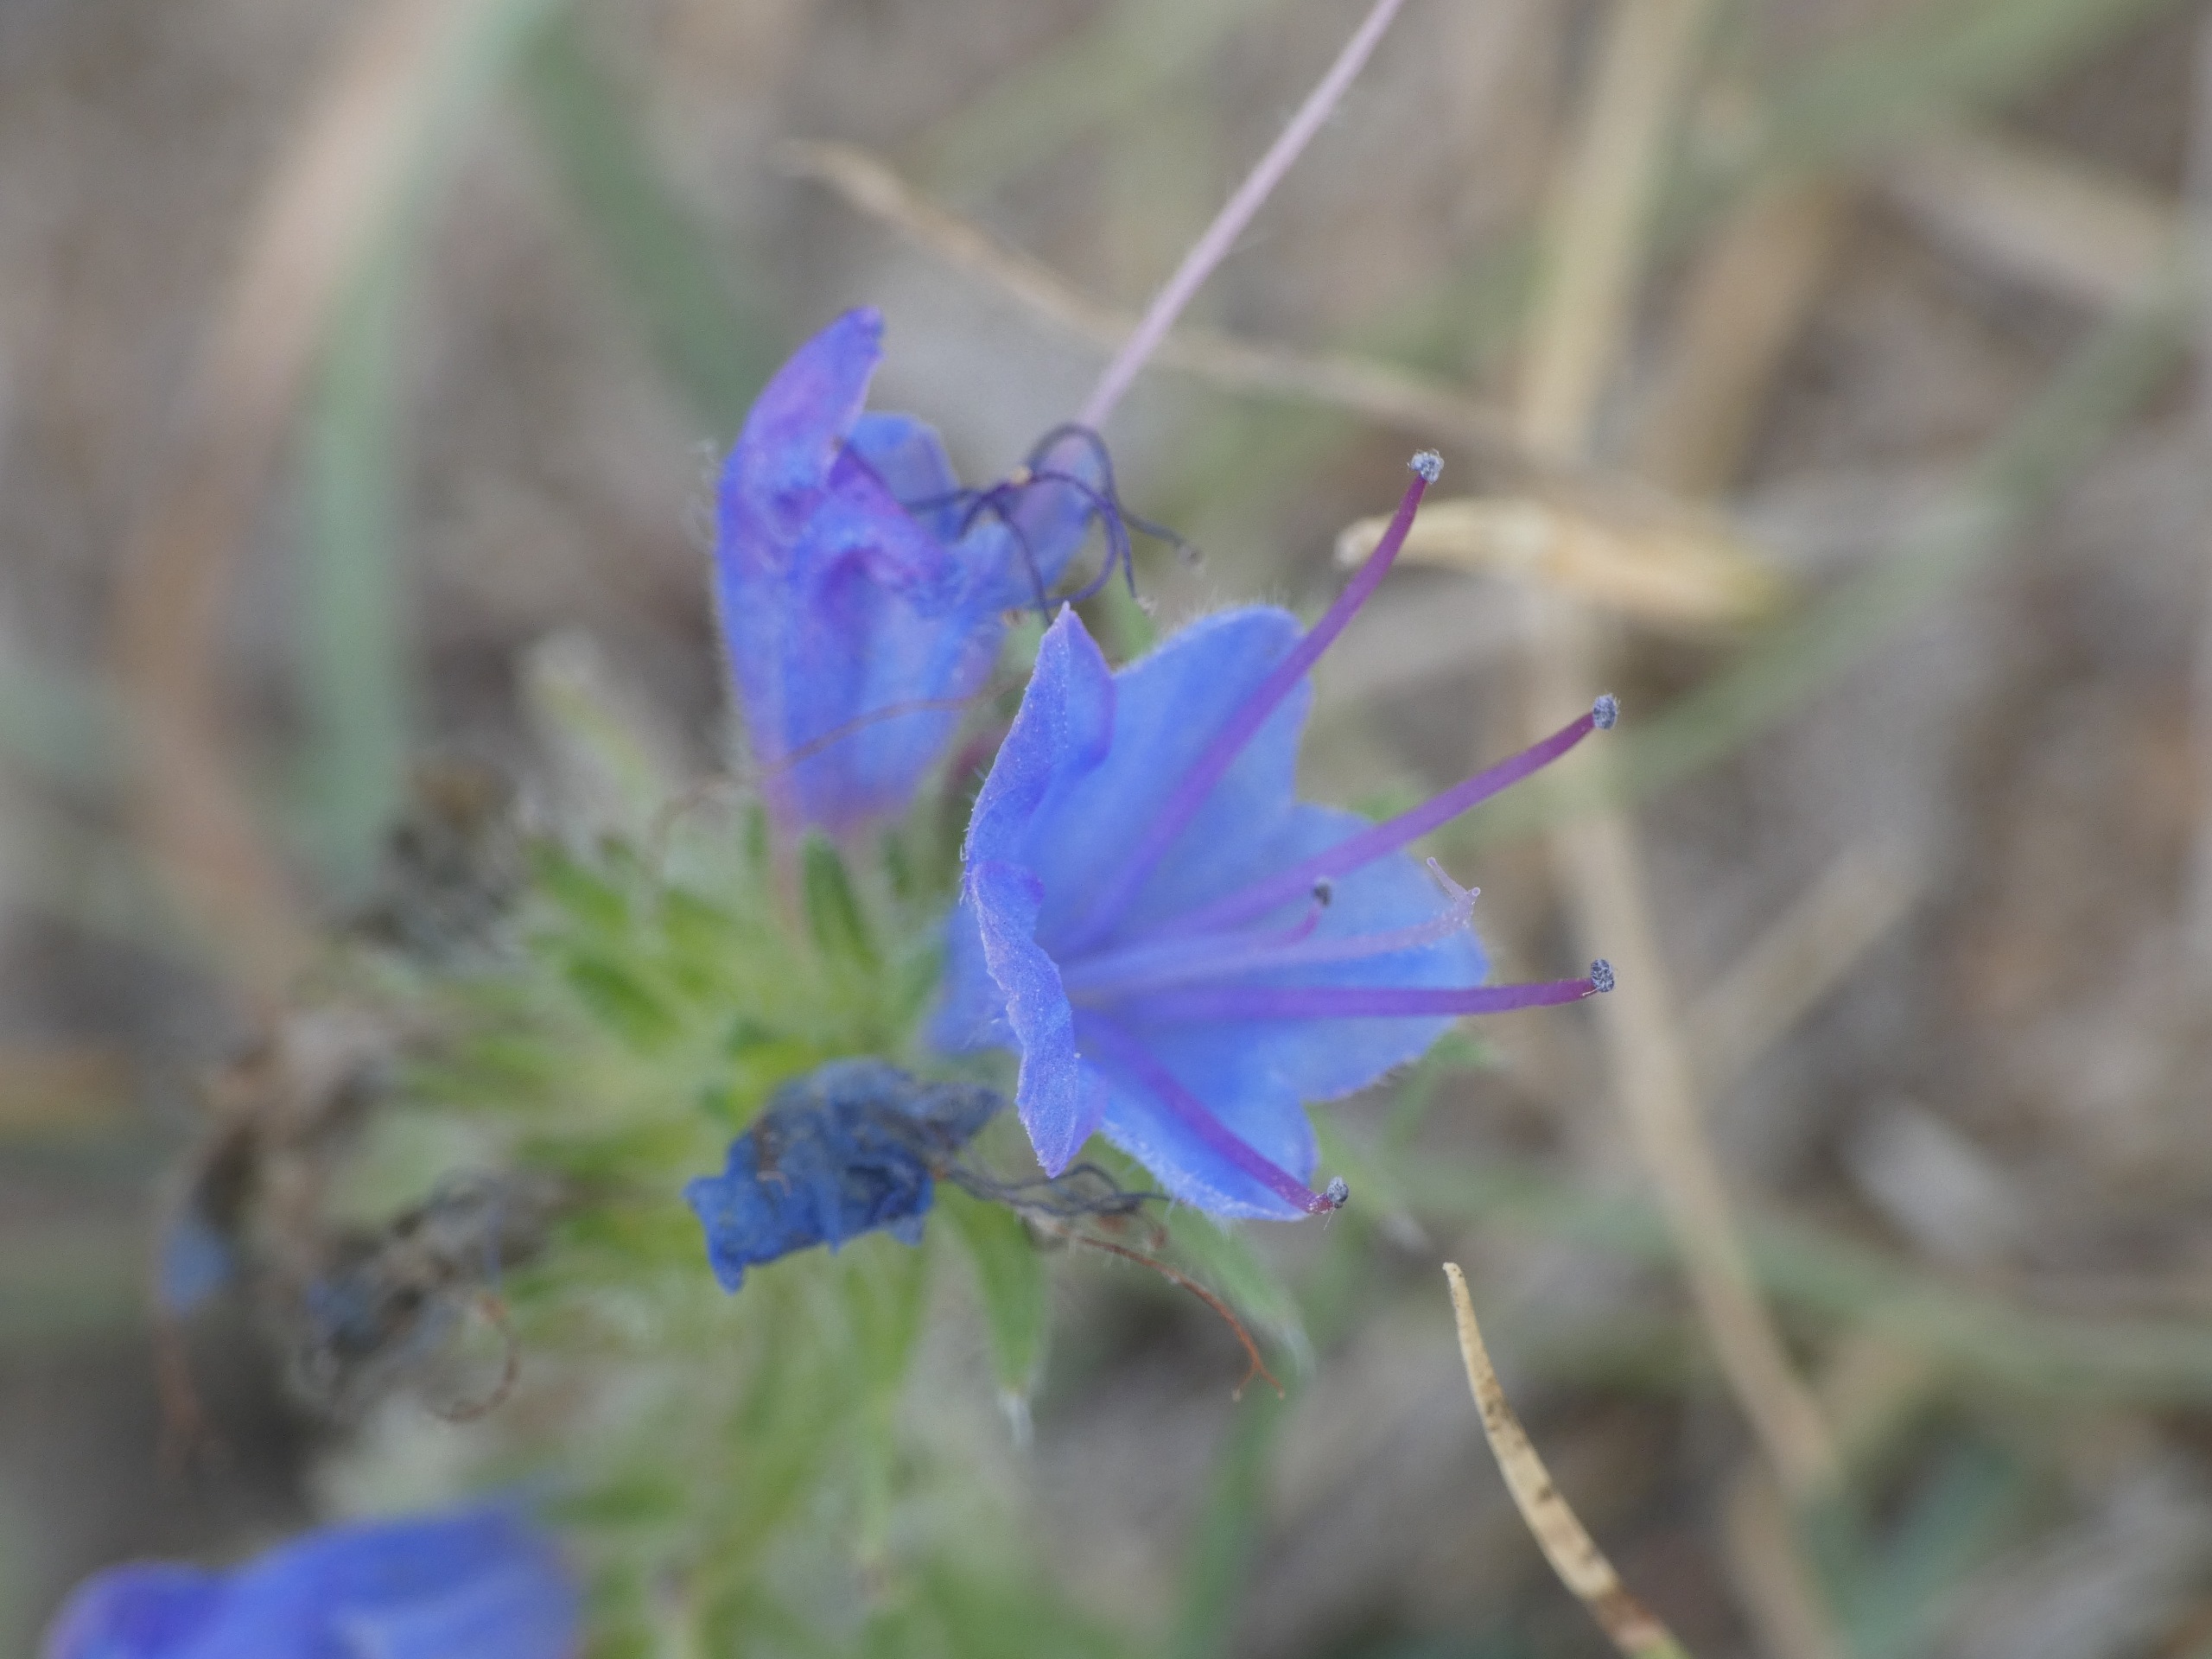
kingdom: Plantae
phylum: Tracheophyta
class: Magnoliopsida
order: Boraginales
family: Boraginaceae
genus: Echium
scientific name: Echium vulgare
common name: Slangehoved
